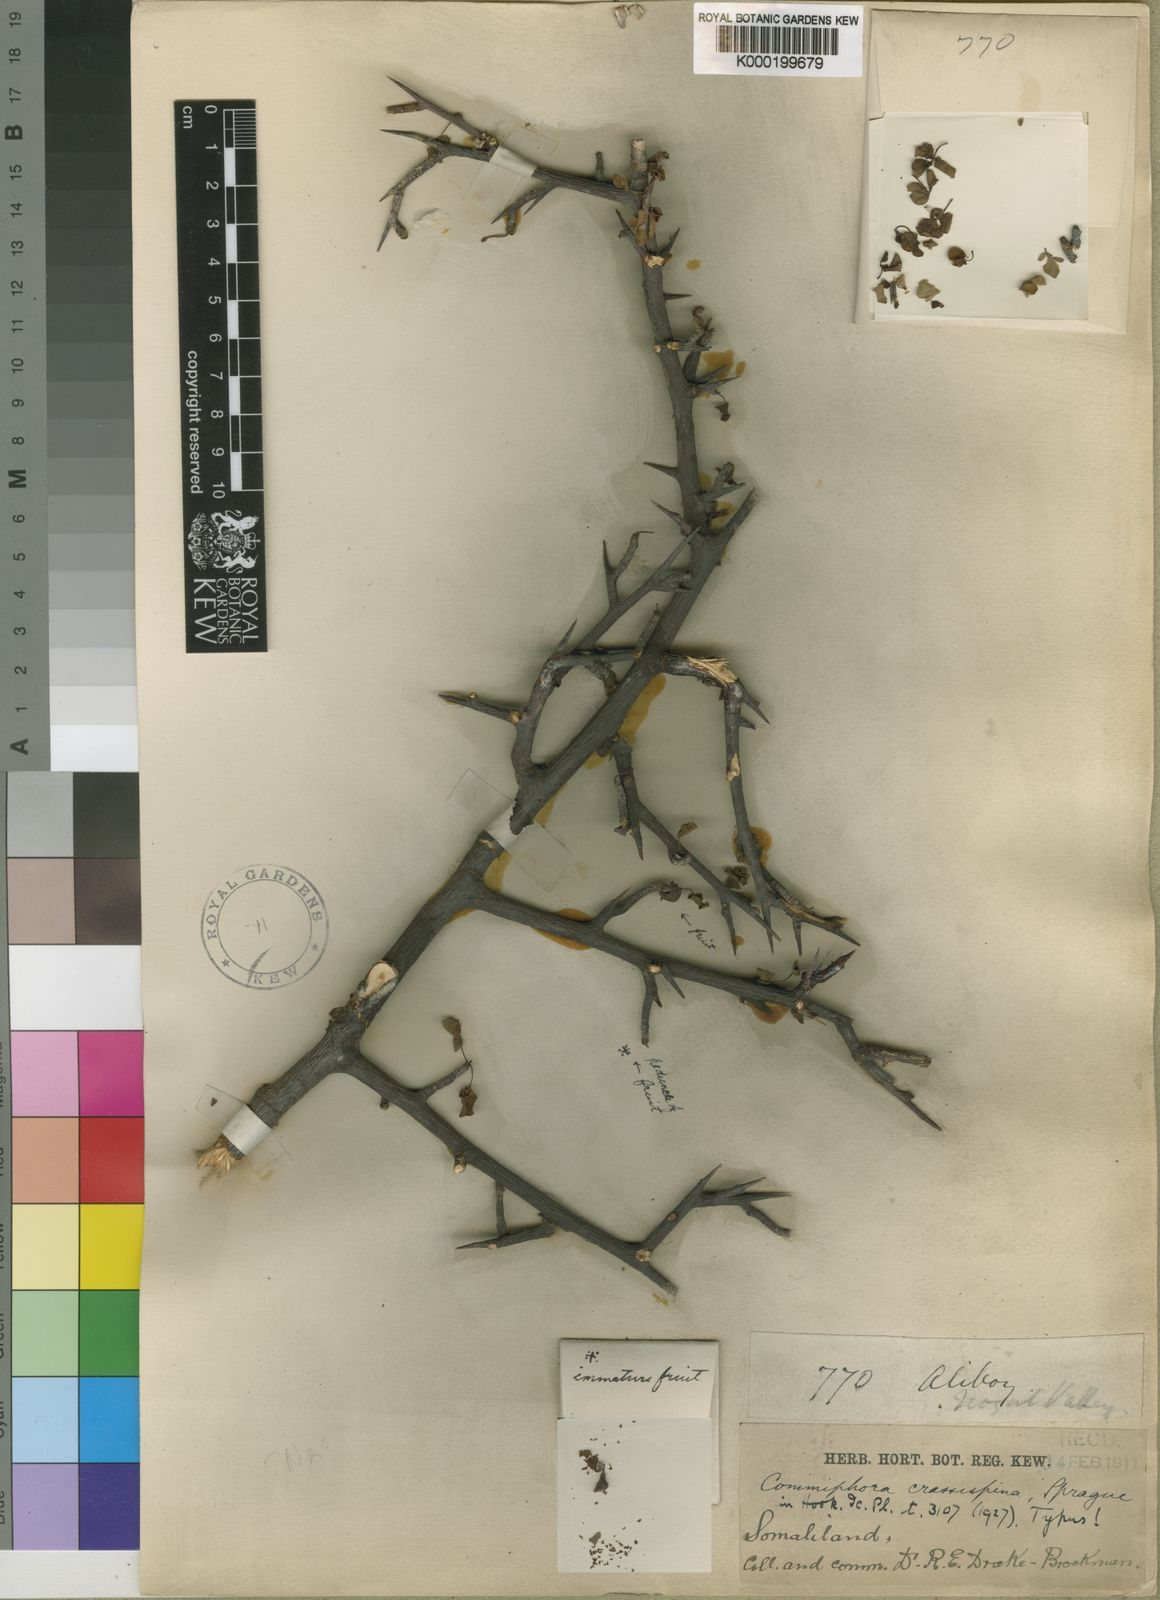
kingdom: Plantae
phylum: Tracheophyta
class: Magnoliopsida
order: Sapindales
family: Burseraceae
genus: Commiphora
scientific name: Commiphora samharensis
